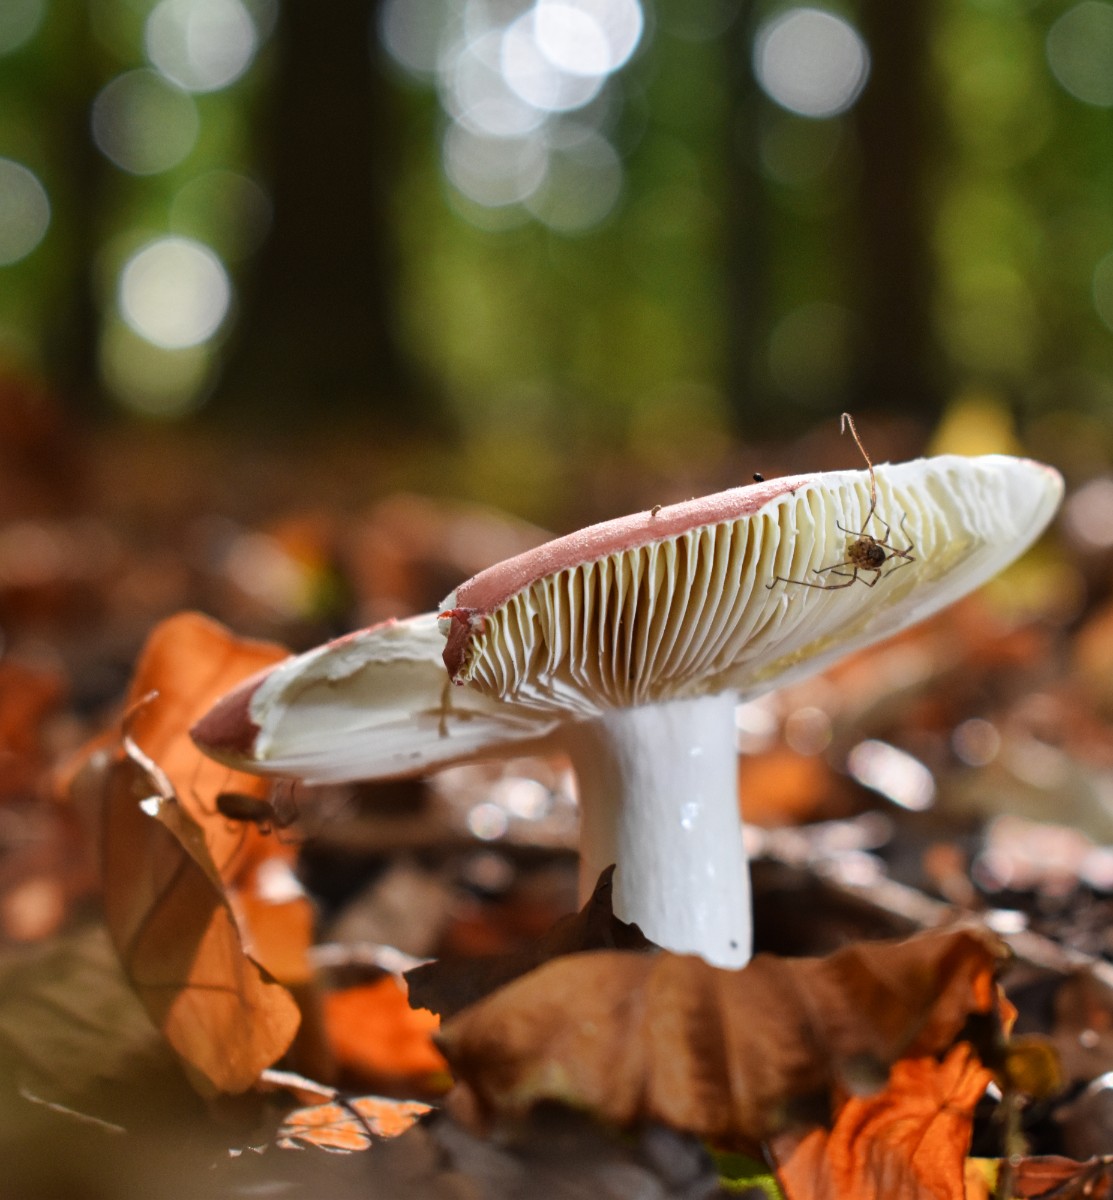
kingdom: Fungi
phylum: Basidiomycota
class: Agaricomycetes
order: Russulales
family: Russulaceae
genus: Russula
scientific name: Russula
